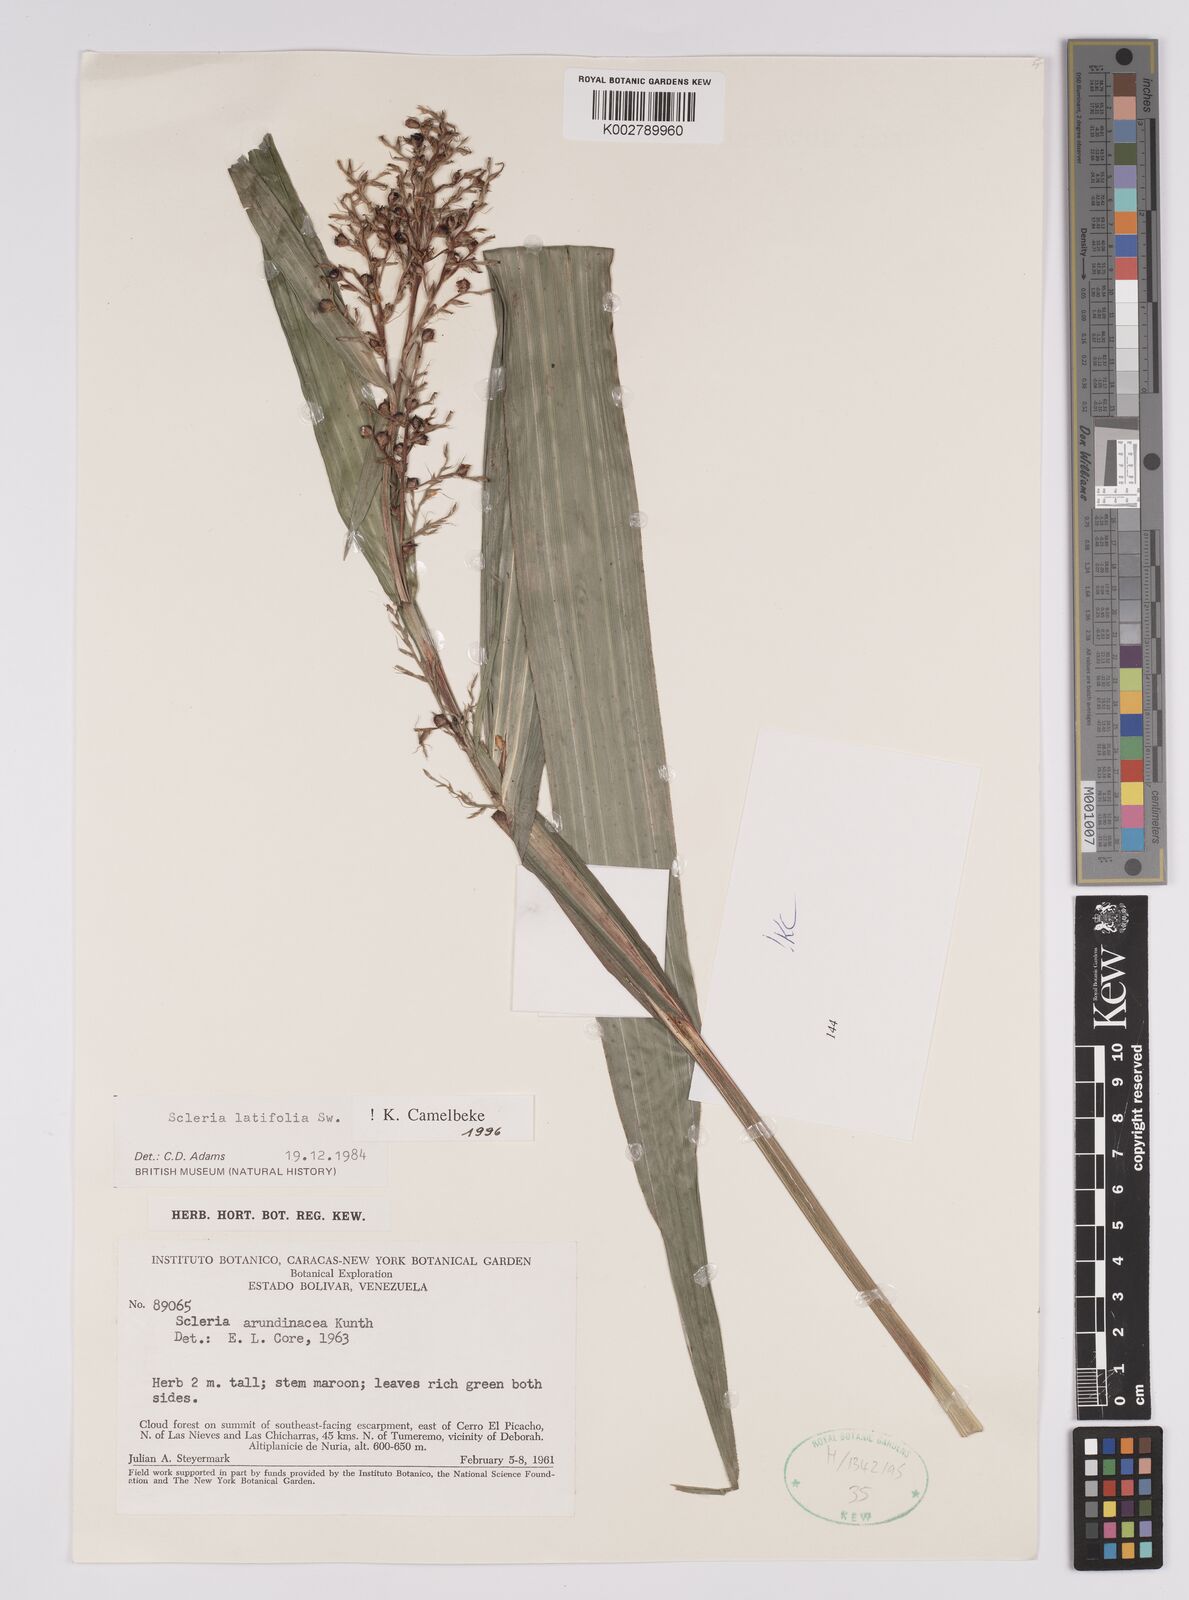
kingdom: Plantae
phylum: Tracheophyta
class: Liliopsida
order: Poales
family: Cyperaceae
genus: Scleria
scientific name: Scleria latifolia
